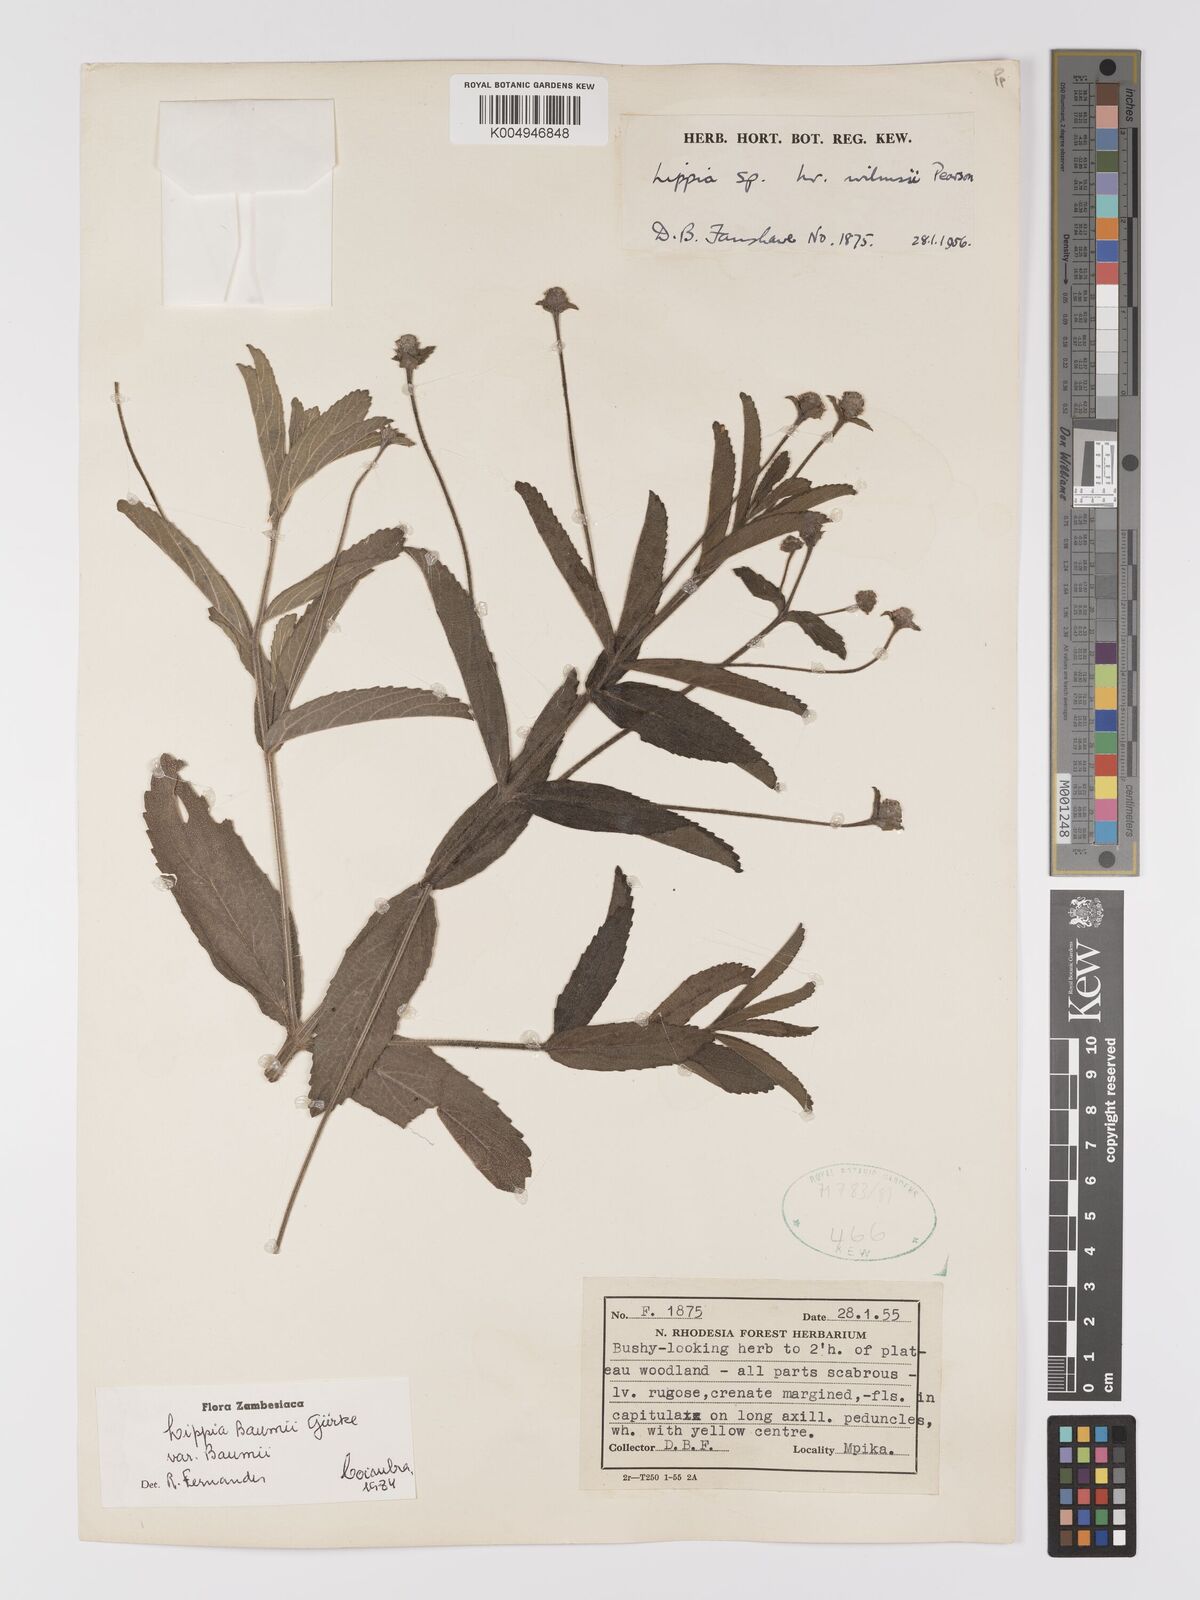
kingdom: Plantae
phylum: Tracheophyta
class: Magnoliopsida
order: Lamiales
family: Verbenaceae
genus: Lippia
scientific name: Lippia baumii
